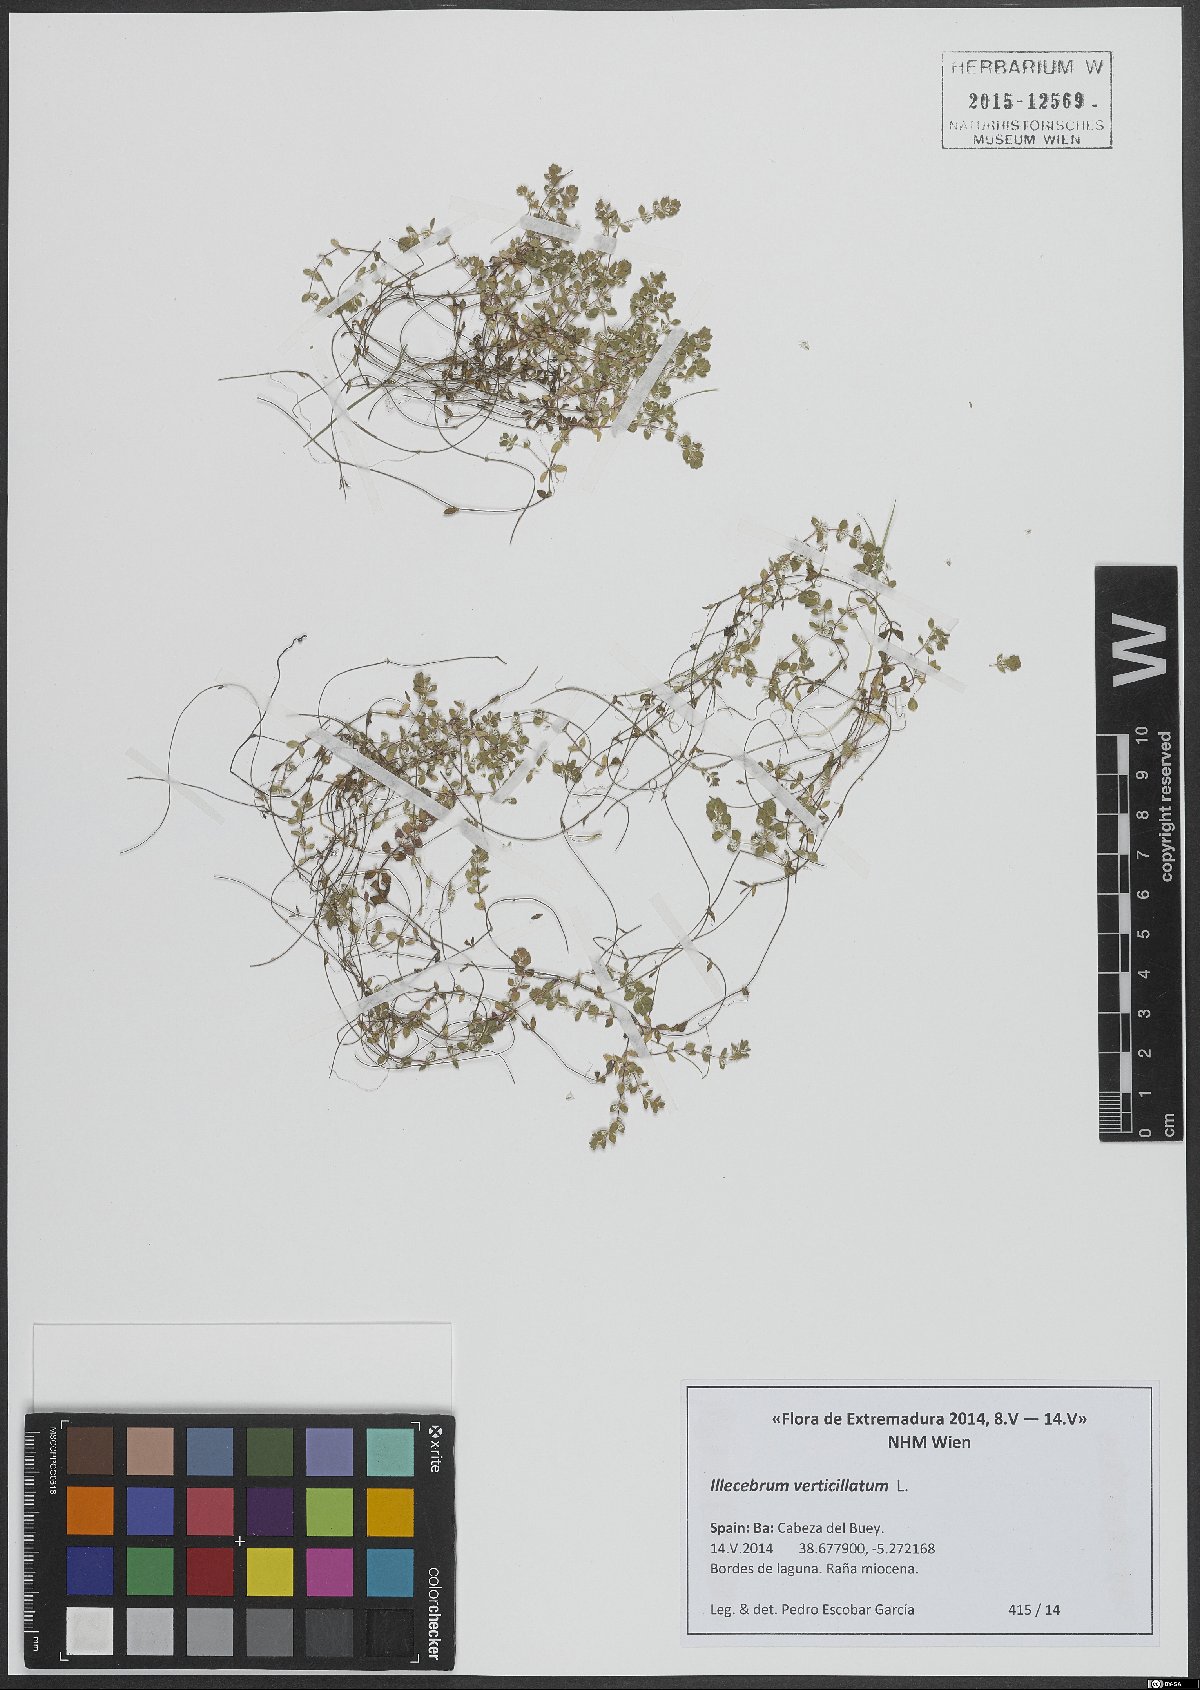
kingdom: Plantae
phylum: Tracheophyta
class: Magnoliopsida
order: Caryophyllales
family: Caryophyllaceae
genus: Illecebrum
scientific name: Illecebrum verticillatum
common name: Coral necklace
